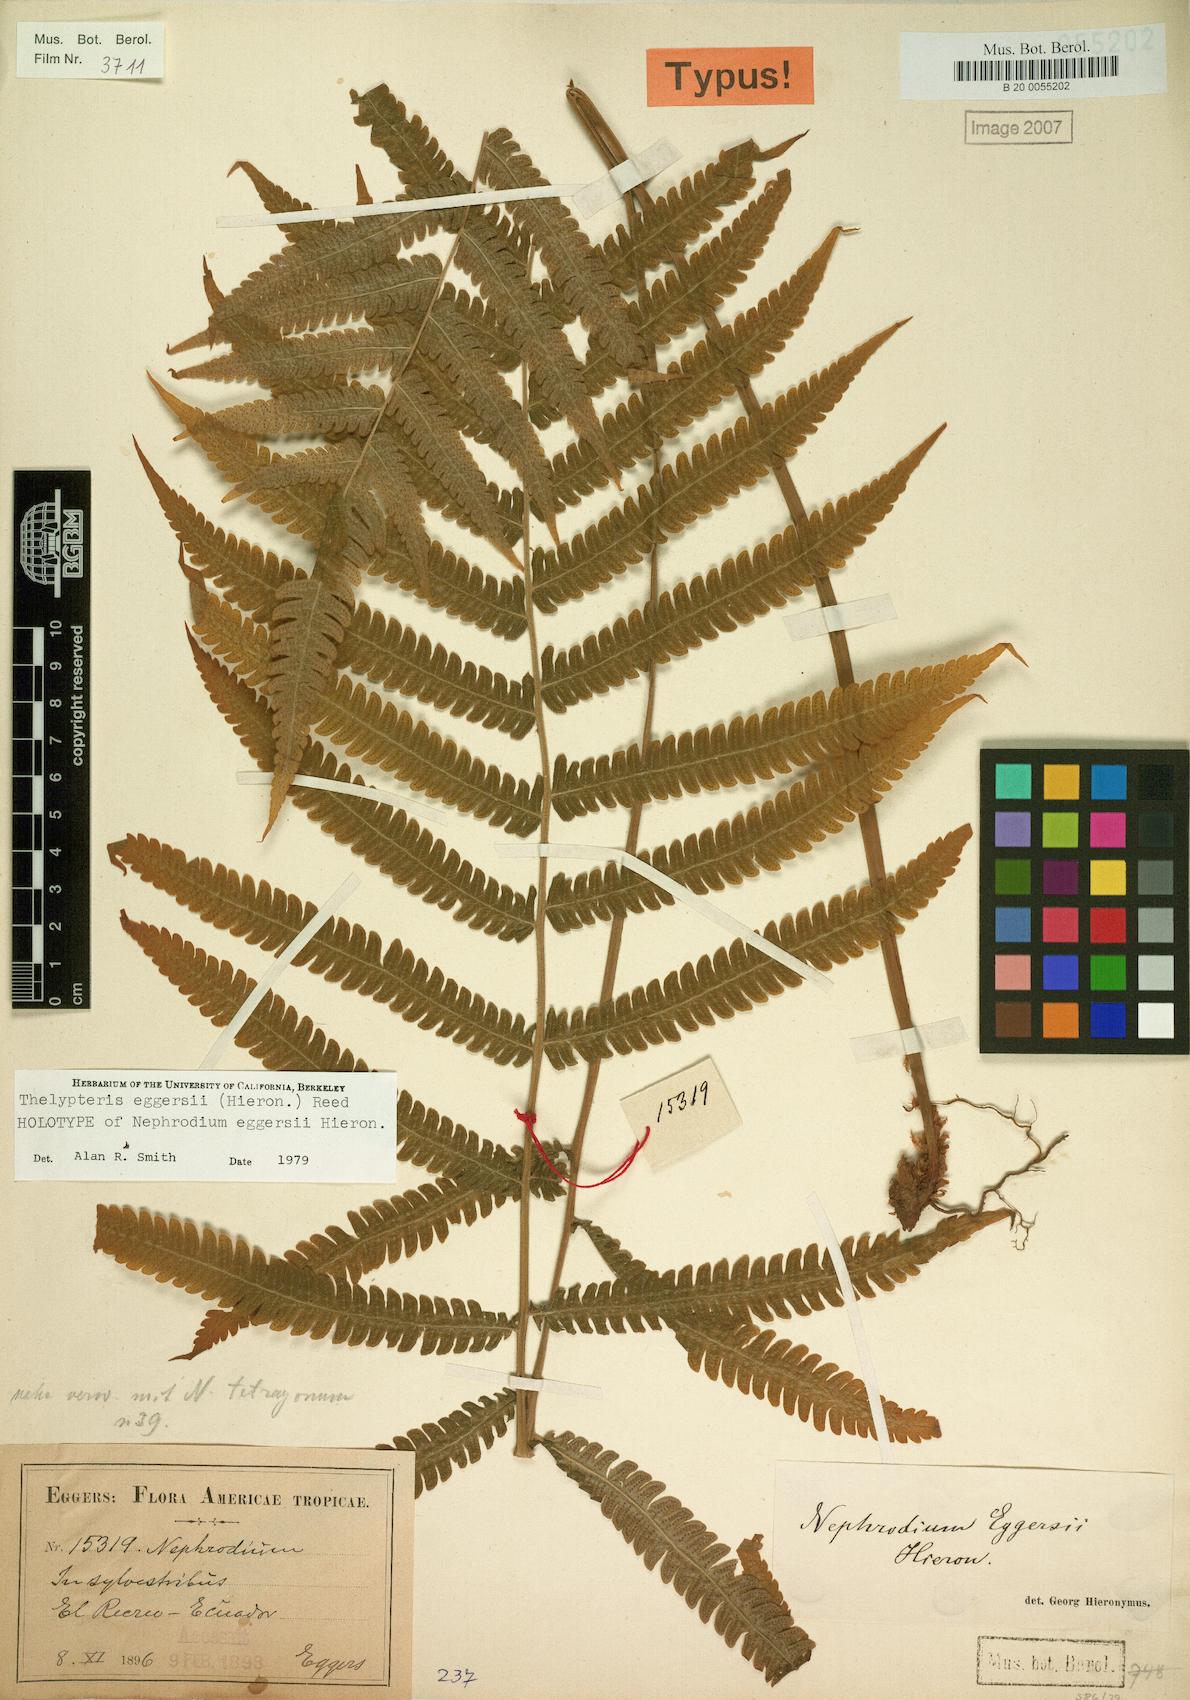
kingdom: Plantae
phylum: Tracheophyta
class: Polypodiopsida
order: Polypodiales
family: Thelypteridaceae
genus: Goniopteris
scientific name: Goniopteris eggersii
